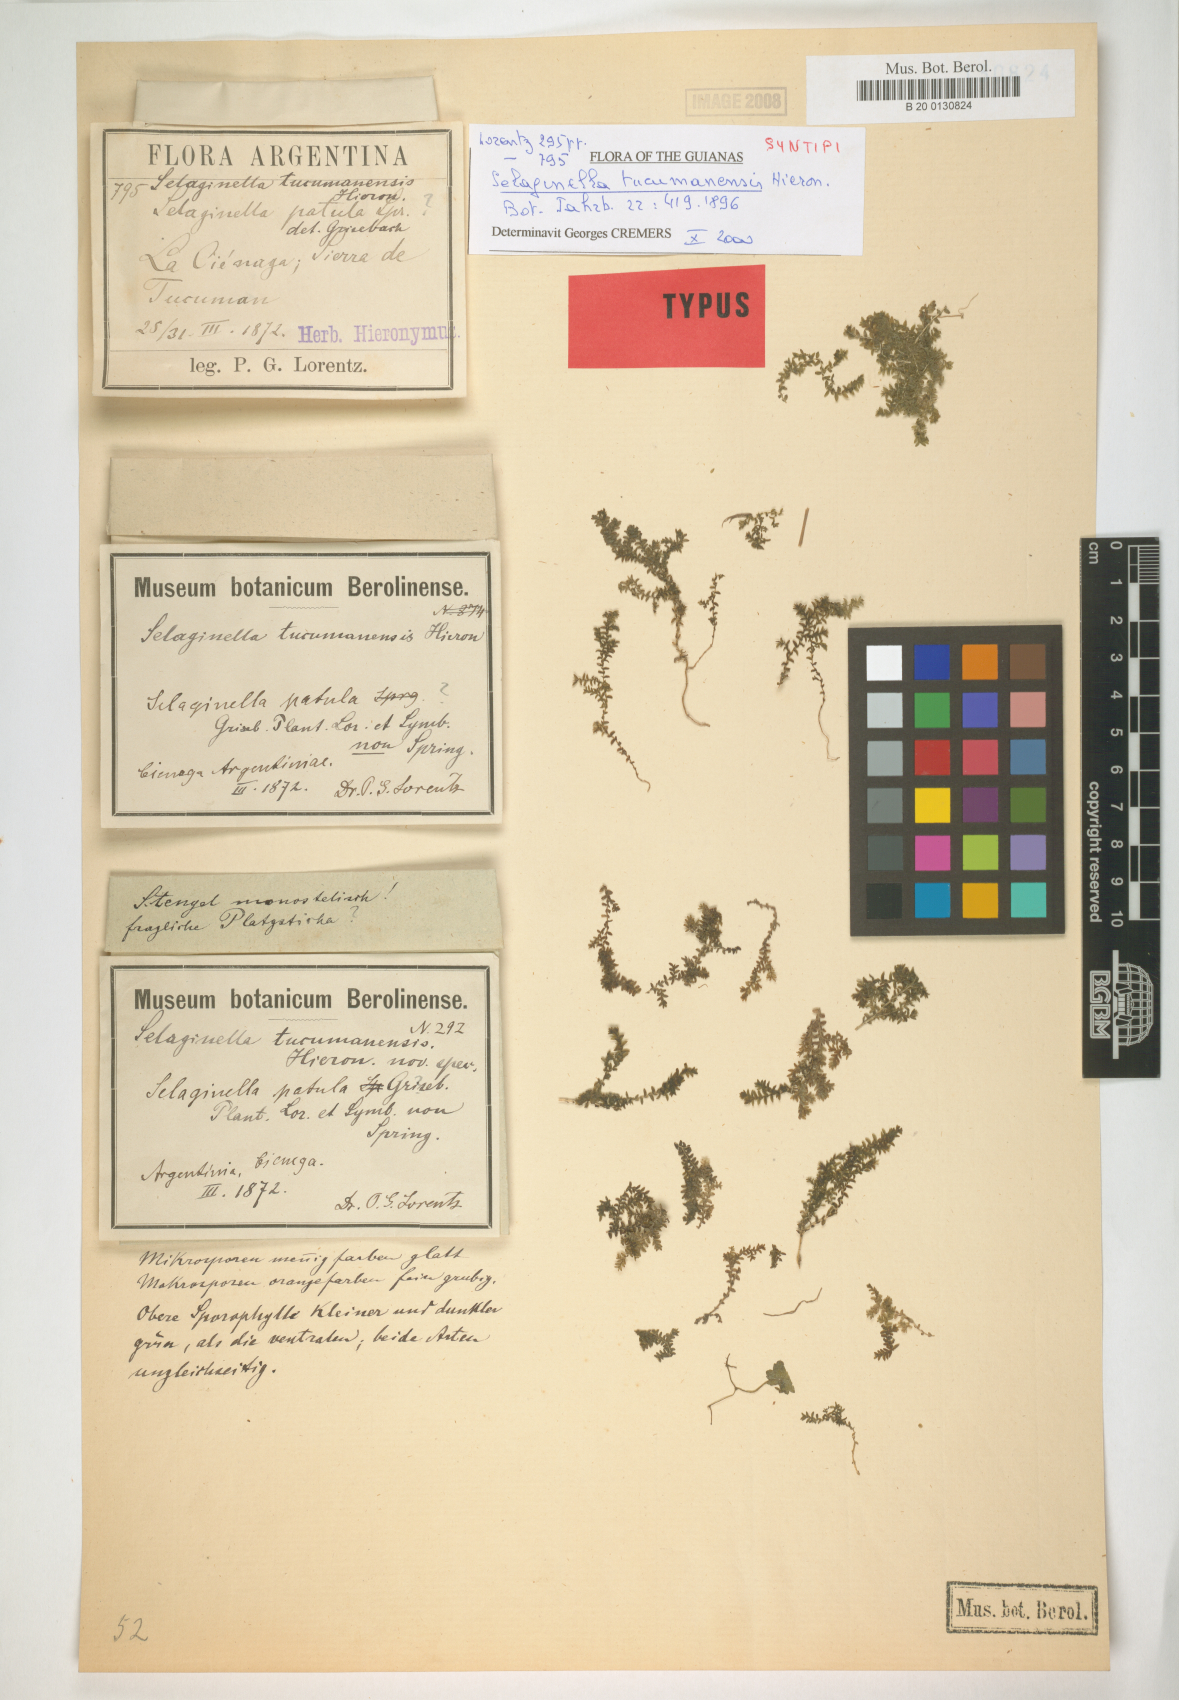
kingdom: Plantae
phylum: Tracheophyta
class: Lycopodiopsida
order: Selaginellales
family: Selaginellaceae
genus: Selaginella
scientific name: Selaginella novae-hollandiae
